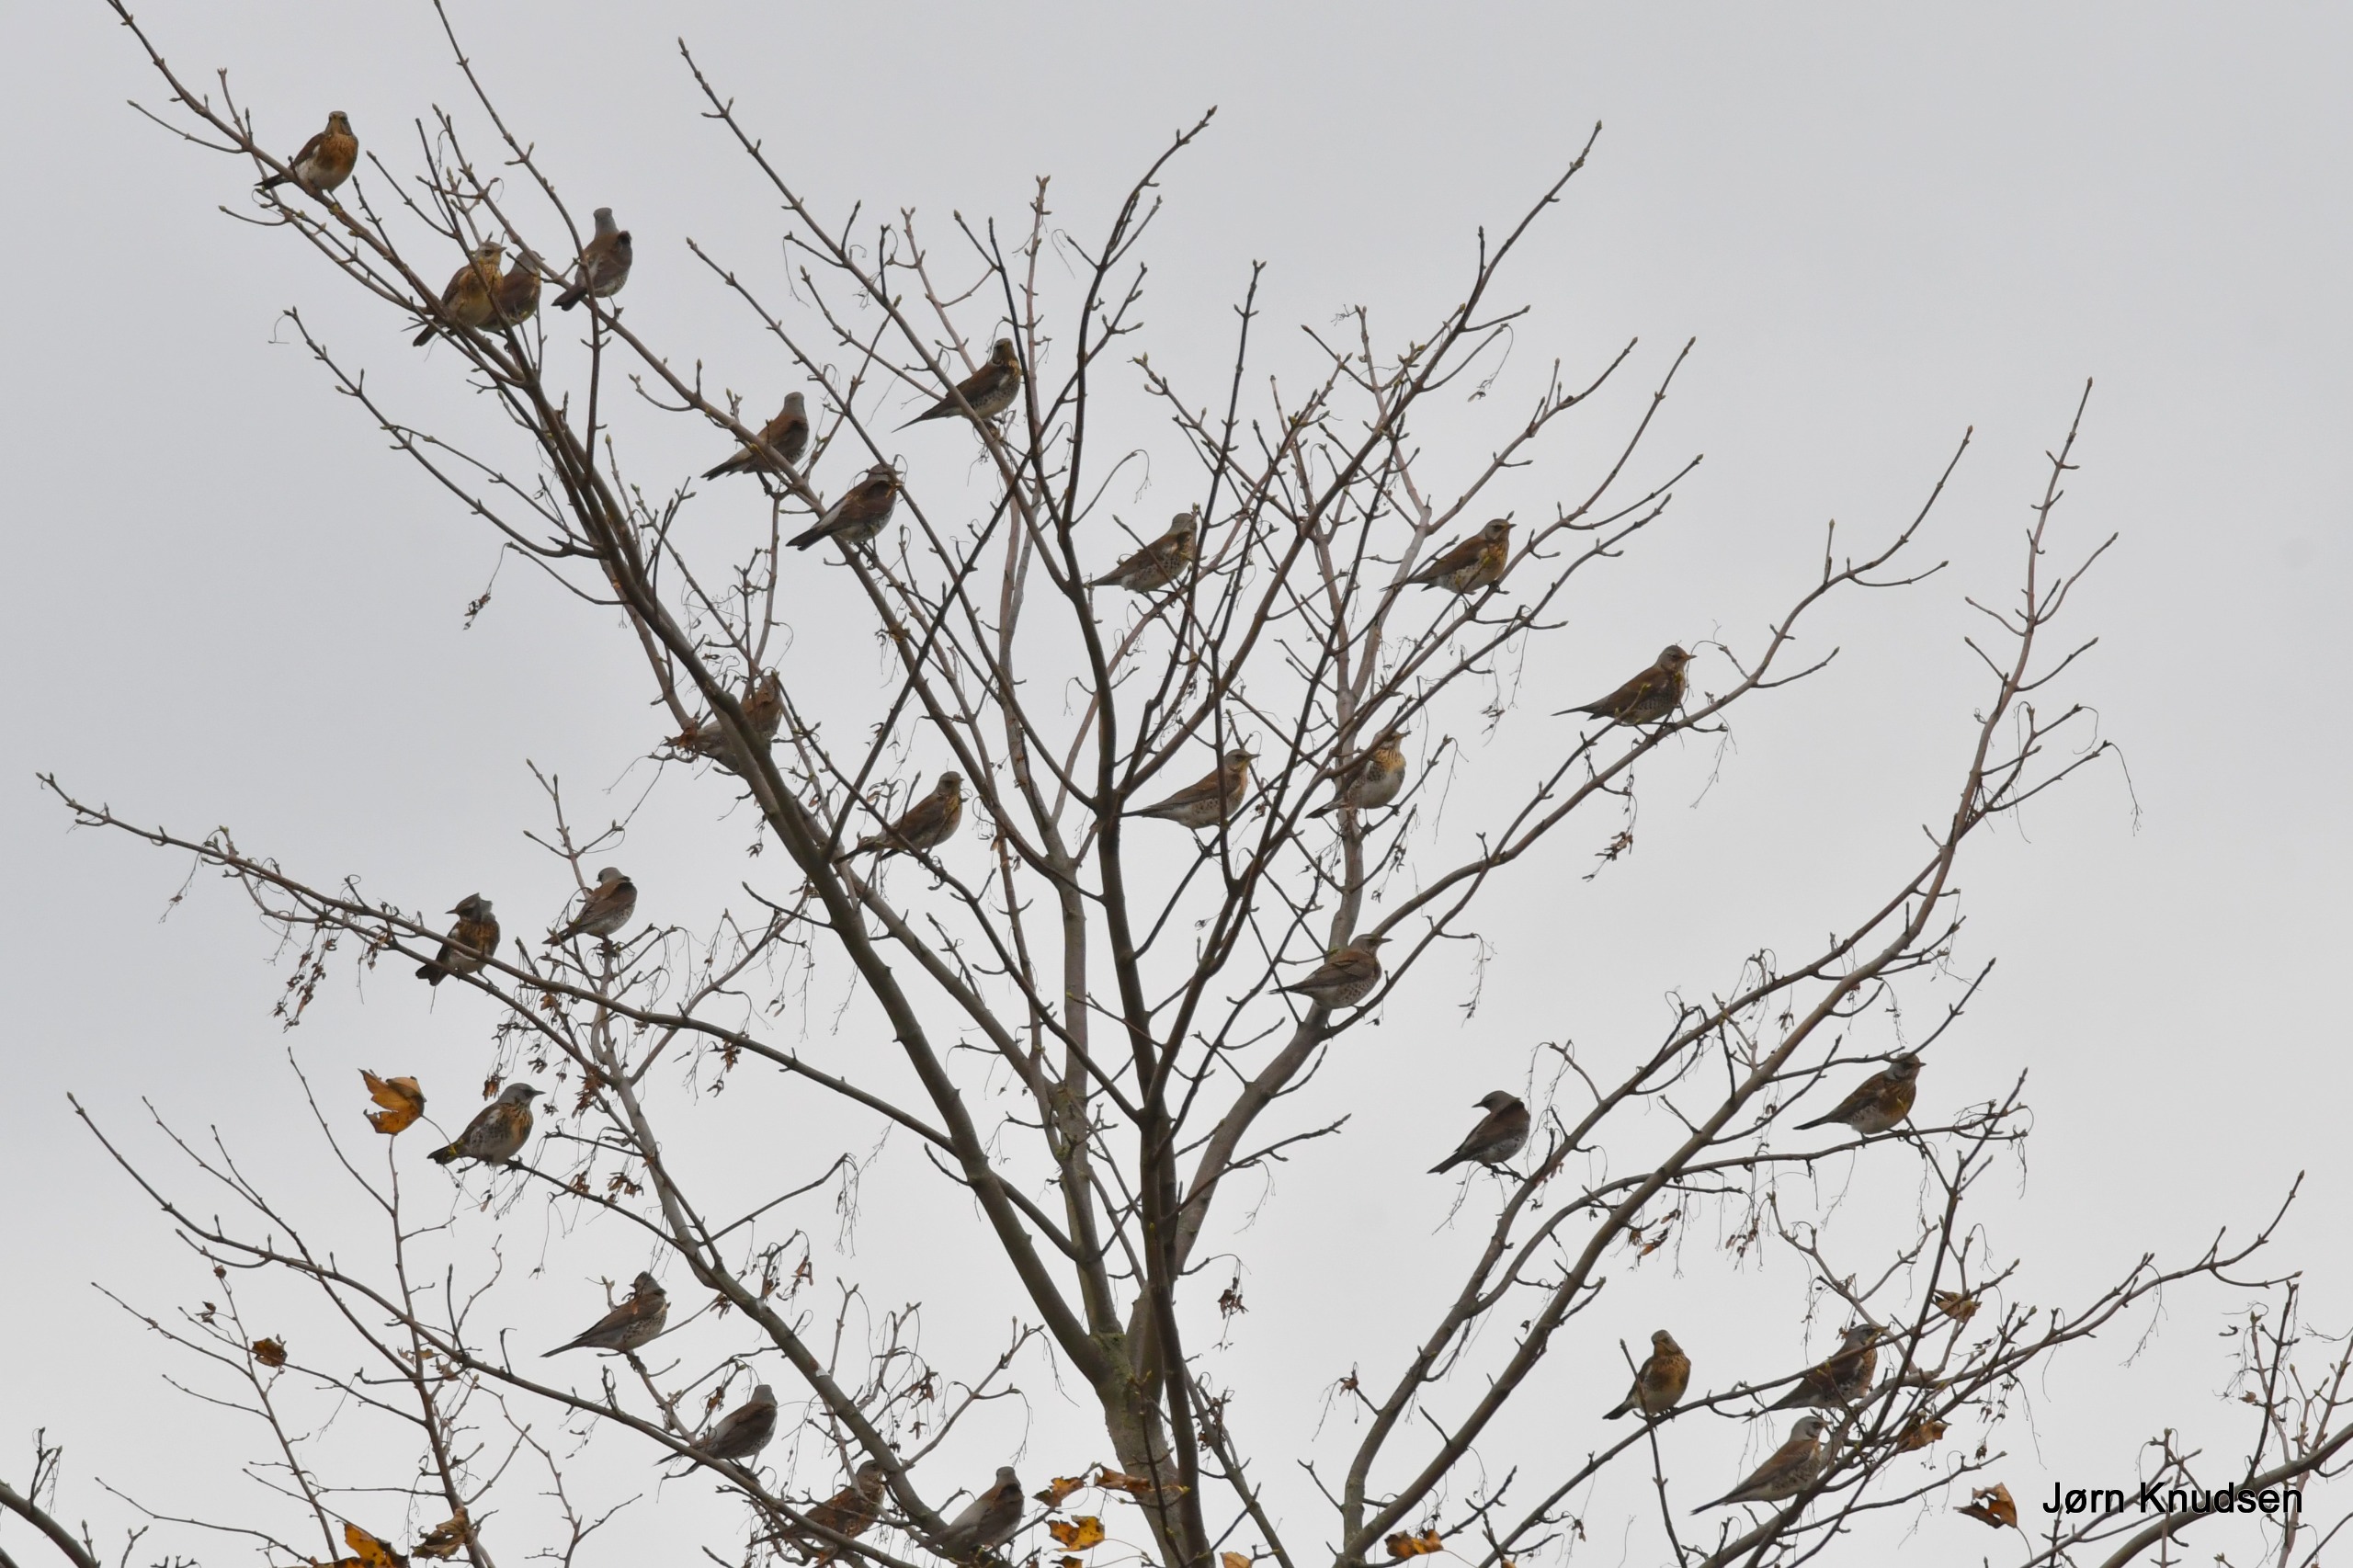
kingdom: Animalia
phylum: Chordata
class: Aves
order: Passeriformes
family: Fringillidae
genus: Fringilla
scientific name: Fringilla montifringilla
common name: Kvækerfinke
